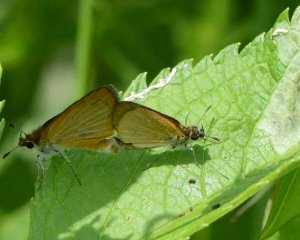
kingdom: Animalia
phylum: Arthropoda
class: Insecta
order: Lepidoptera
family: Hesperiidae
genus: Ancyloxypha
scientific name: Ancyloxypha numitor
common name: Least Skipper
